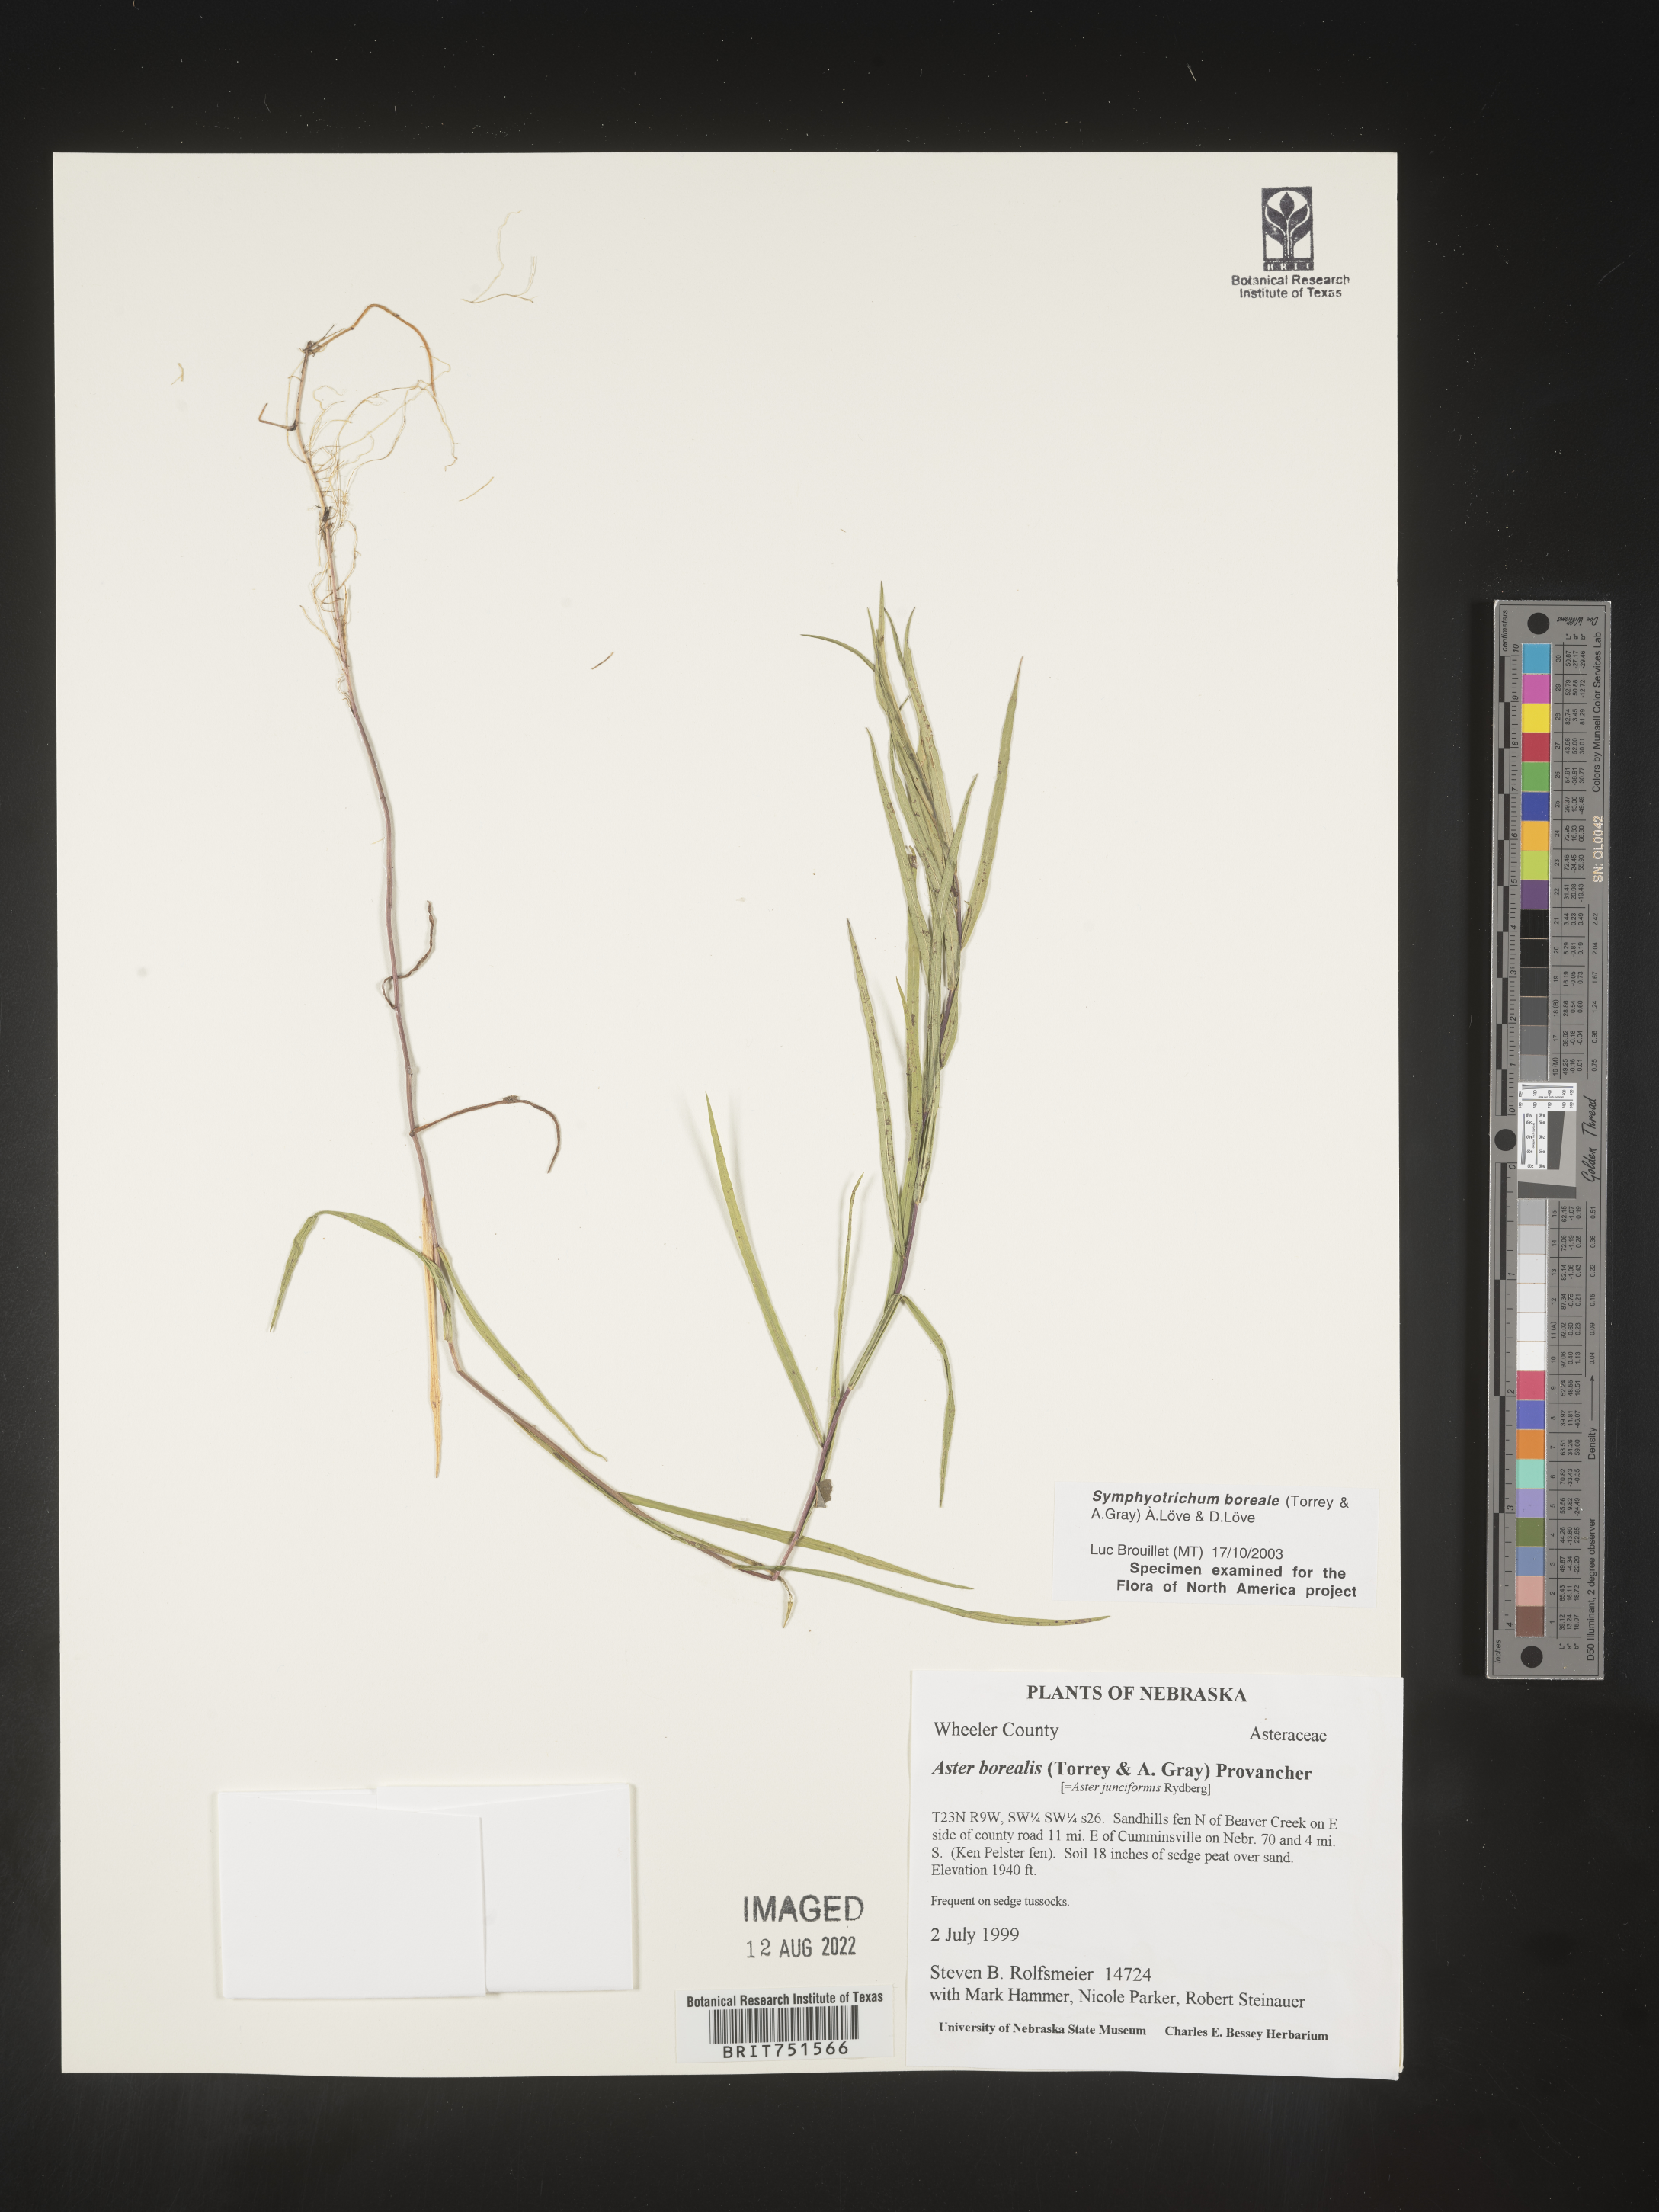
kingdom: Plantae
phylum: Tracheophyta
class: Magnoliopsida
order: Asterales
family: Asteraceae
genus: Symphyotrichum
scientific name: Symphyotrichum boreale
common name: Northern bog aster
